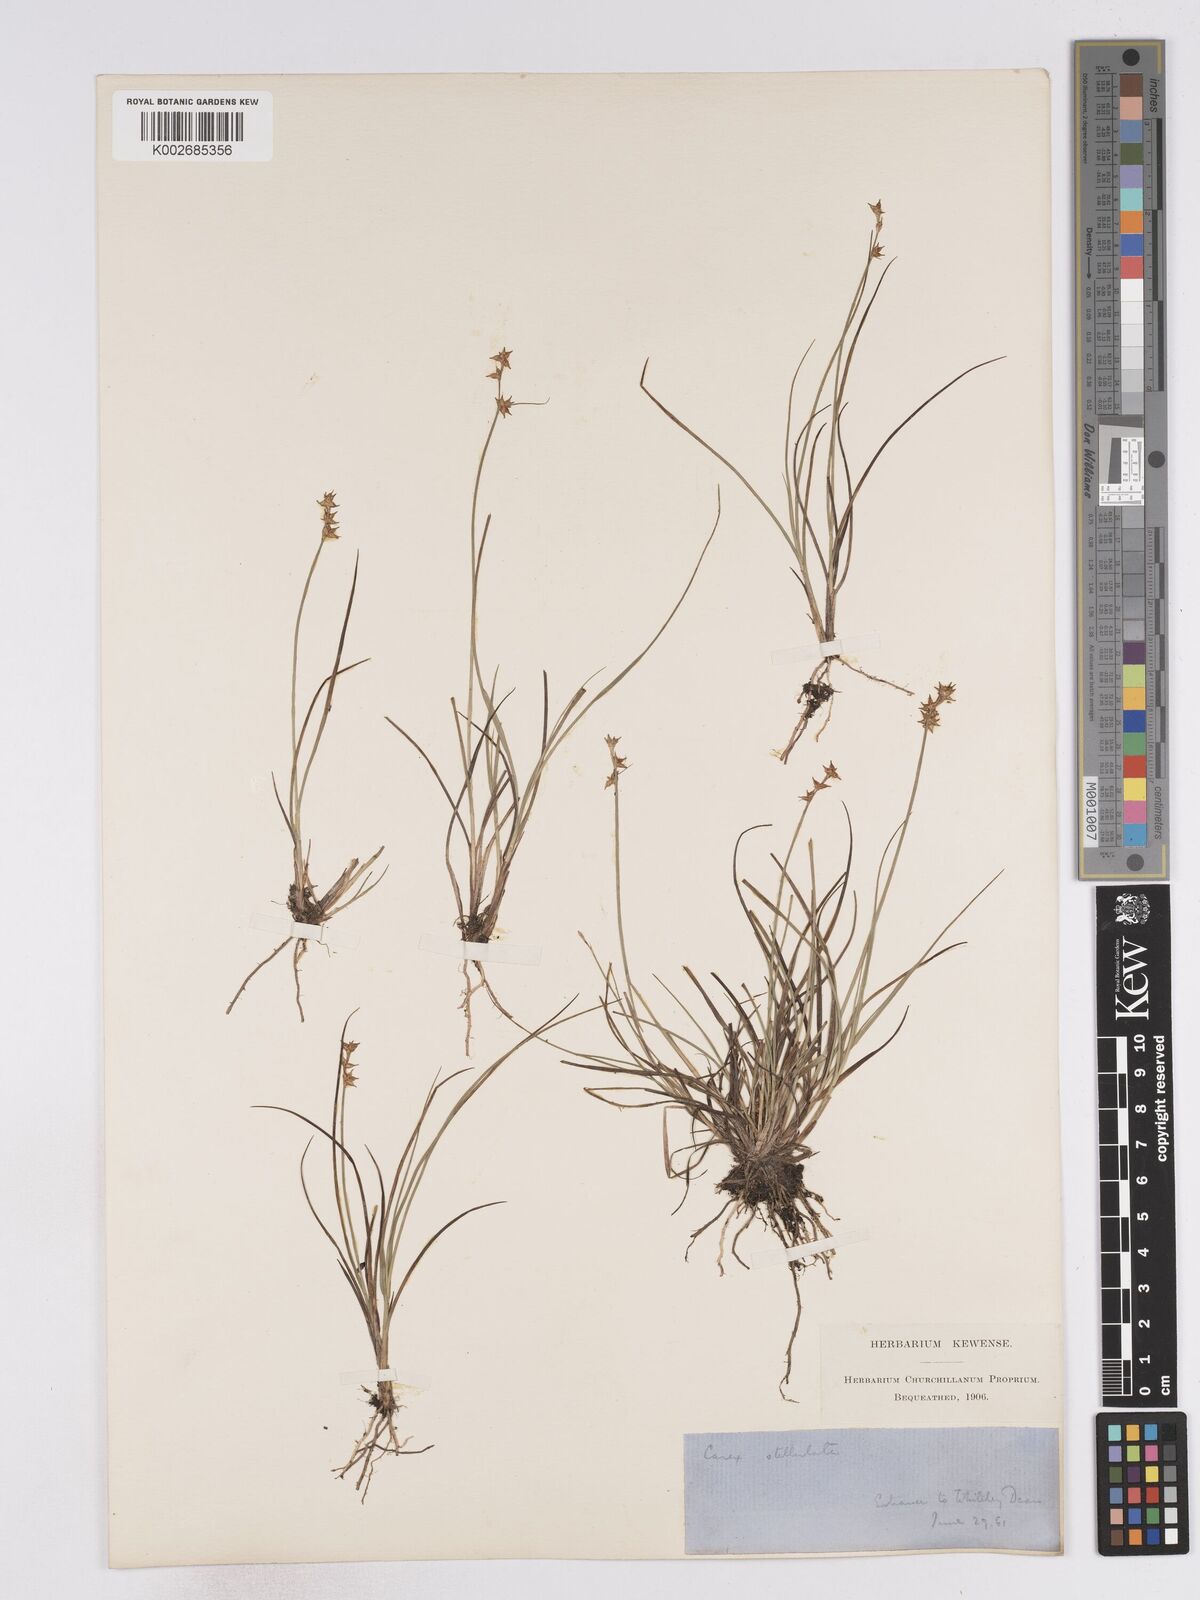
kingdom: Plantae
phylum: Tracheophyta
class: Liliopsida
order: Poales
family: Cyperaceae
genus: Carex
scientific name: Carex echinata
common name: Star sedge
